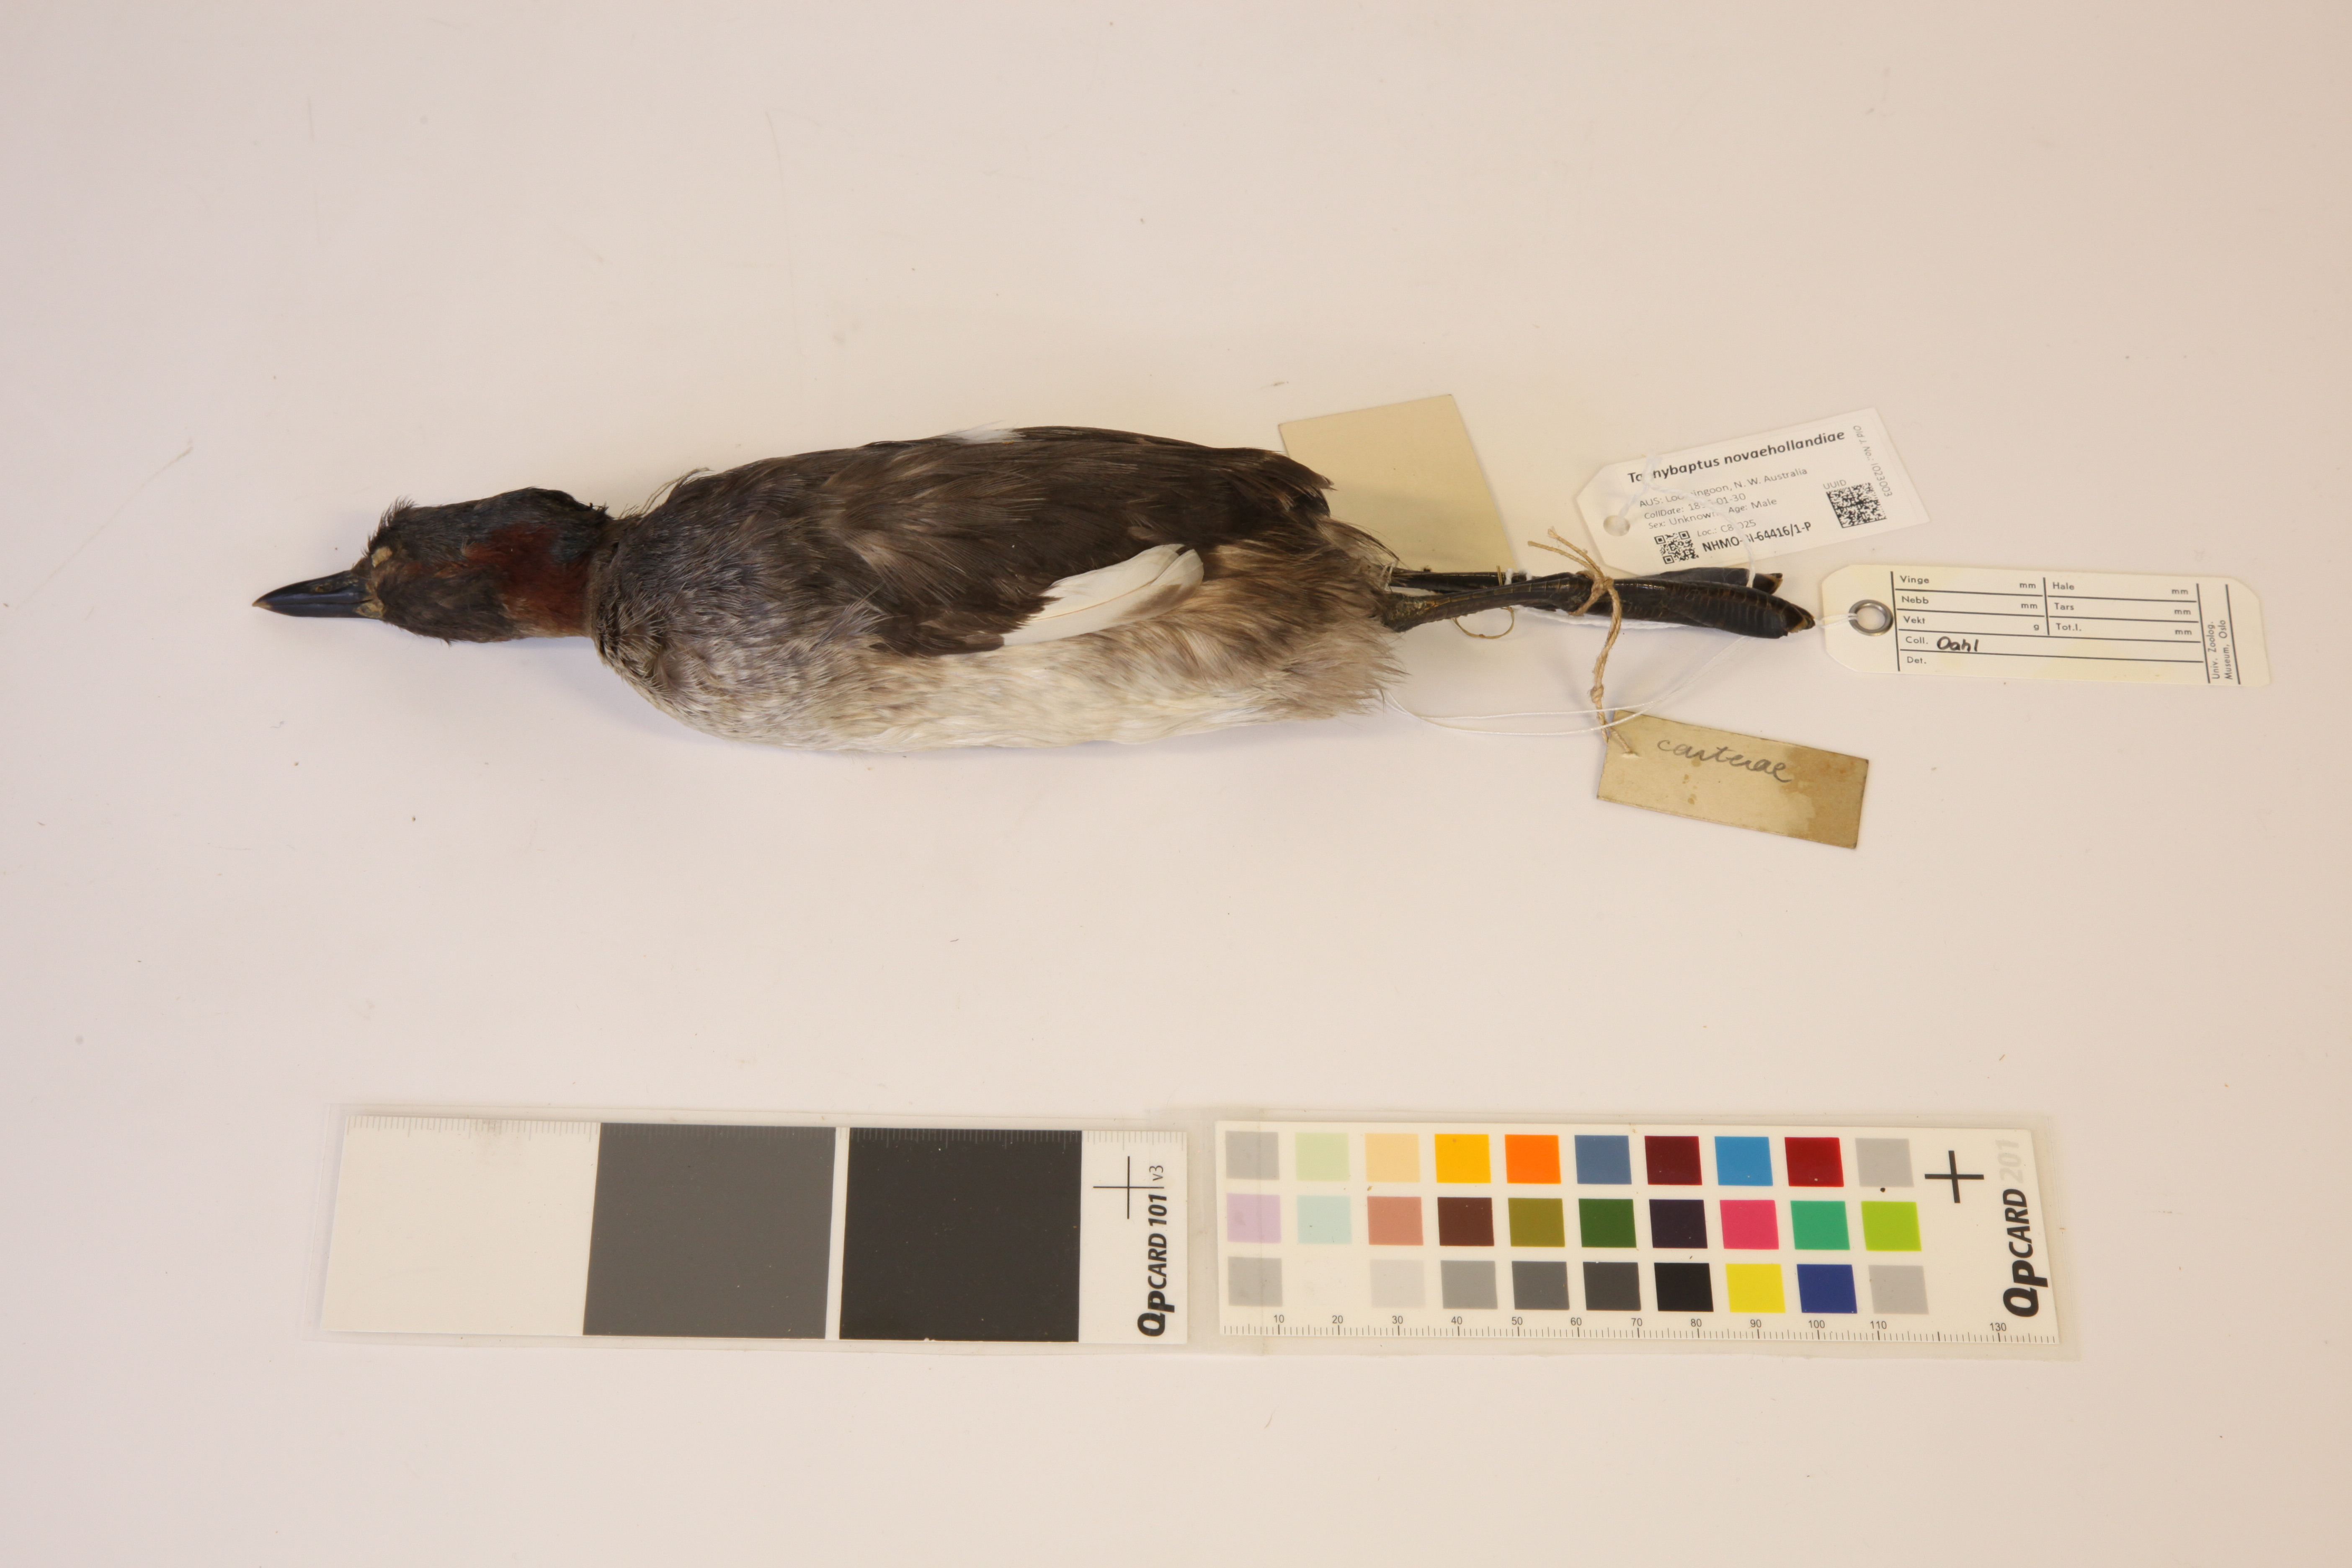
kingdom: Animalia
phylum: Chordata
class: Aves
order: Podicipediformes
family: Podicipedidae
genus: Tachybaptus
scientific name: Tachybaptus novaehollandiae
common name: Australasian grebe
